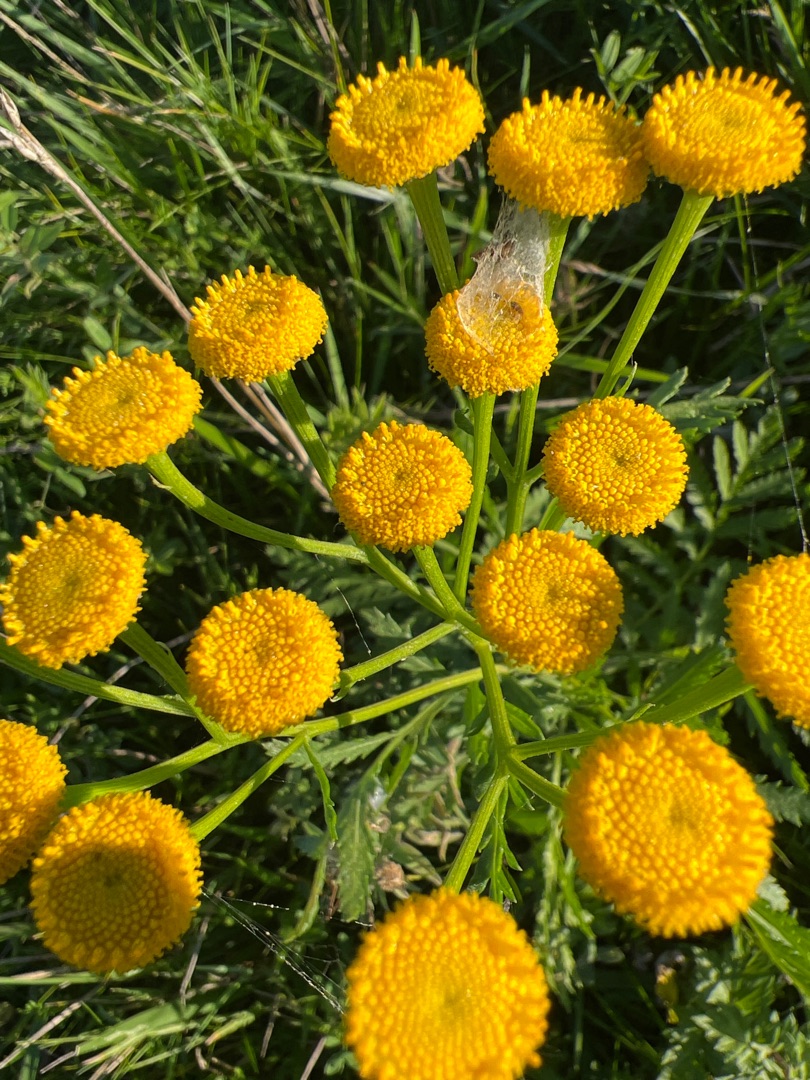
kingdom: Plantae
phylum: Tracheophyta
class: Magnoliopsida
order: Asterales
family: Asteraceae
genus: Tanacetum
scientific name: Tanacetum vulgare
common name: Rejnfan
